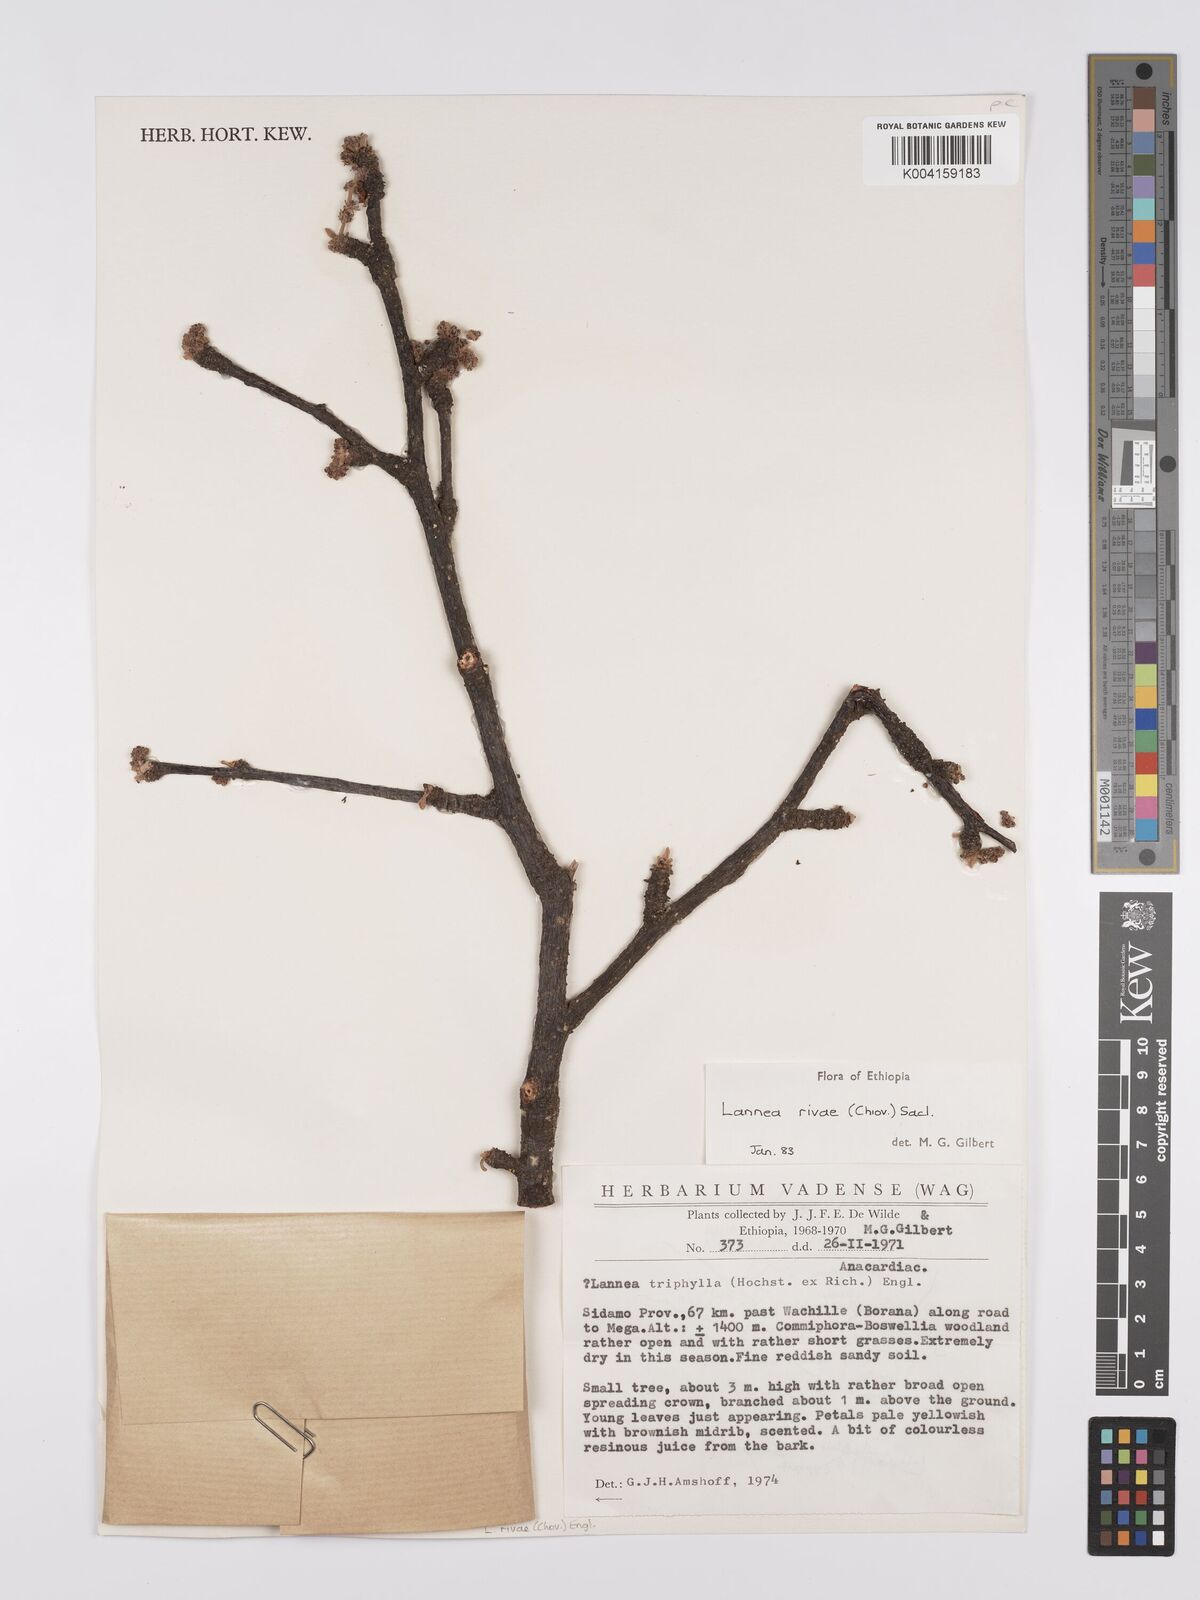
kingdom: Plantae
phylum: Tracheophyta
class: Magnoliopsida
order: Sapindales
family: Anacardiaceae
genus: Lannea
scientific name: Lannea rivae
